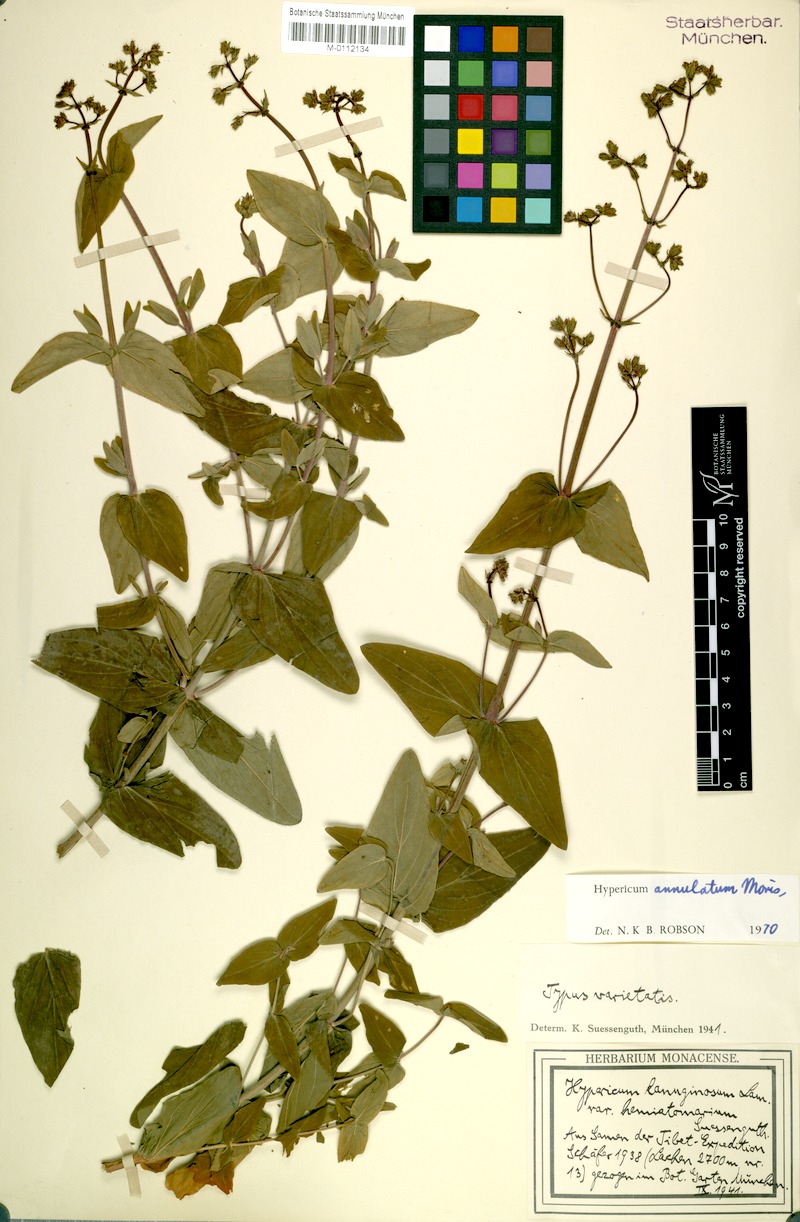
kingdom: Plantae
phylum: Tracheophyta
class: Magnoliopsida
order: Malpighiales
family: Hypericaceae
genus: Hypericum
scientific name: Hypericum annulatum
